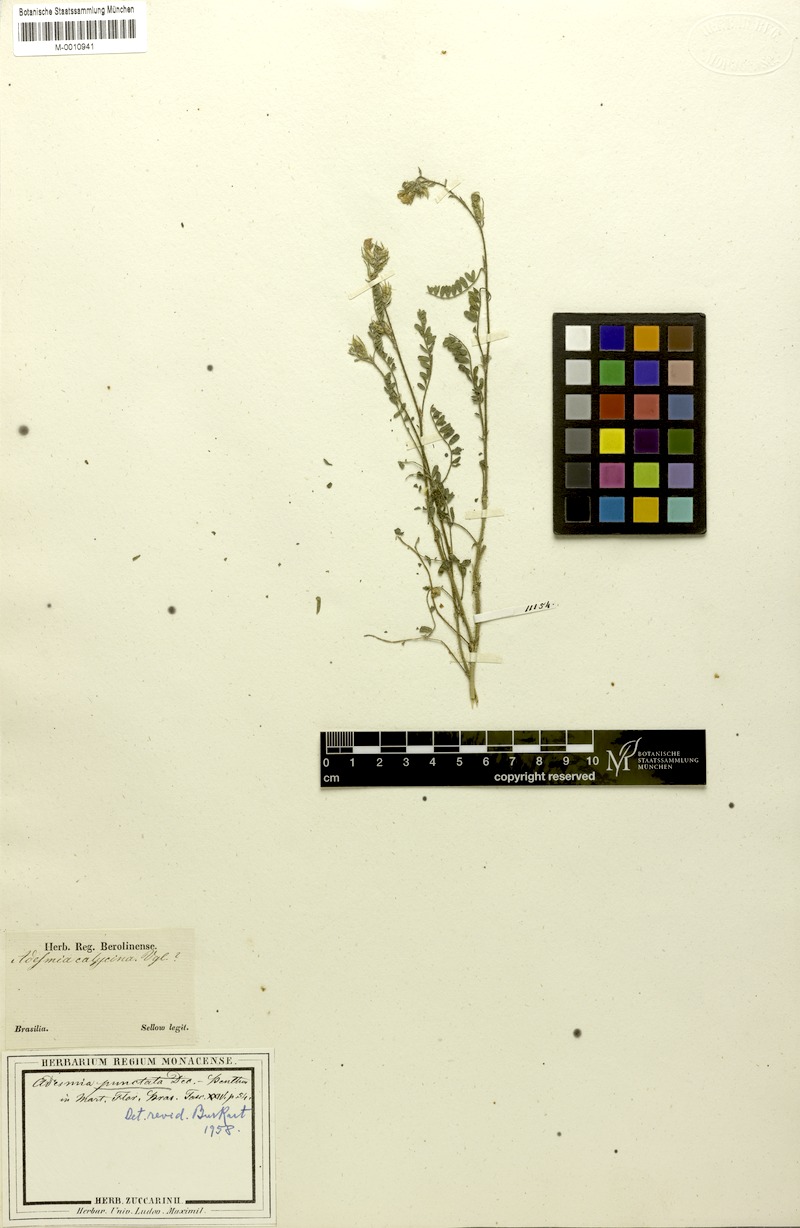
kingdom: Plantae
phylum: Tracheophyta
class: Magnoliopsida
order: Fabales
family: Fabaceae
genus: Adesmia
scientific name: Adesmia punctata
